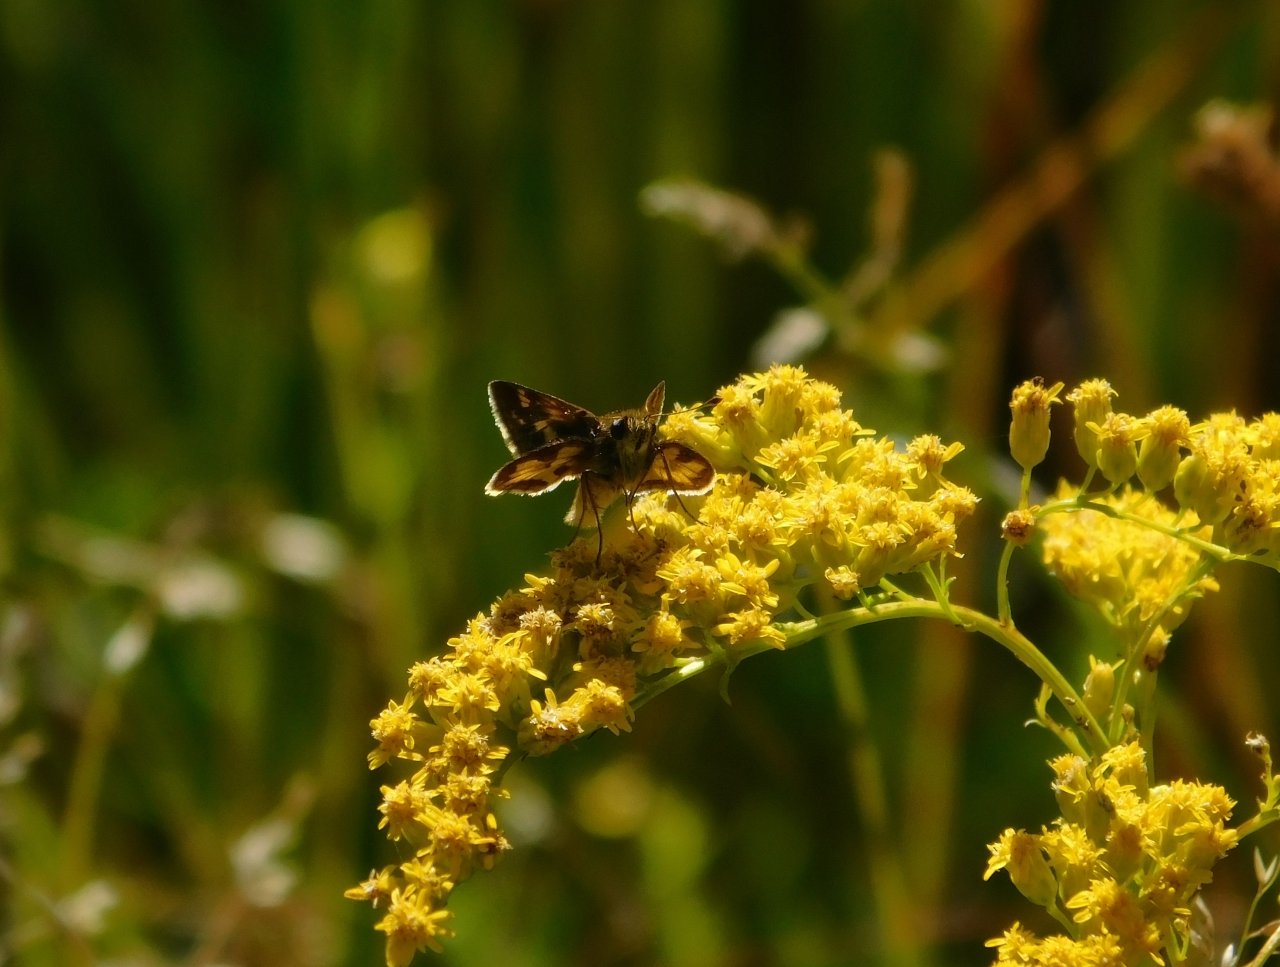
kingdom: Animalia
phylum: Arthropoda
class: Insecta
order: Lepidoptera
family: Hesperiidae
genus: Polites
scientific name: Polites coras
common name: Peck's Skipper
